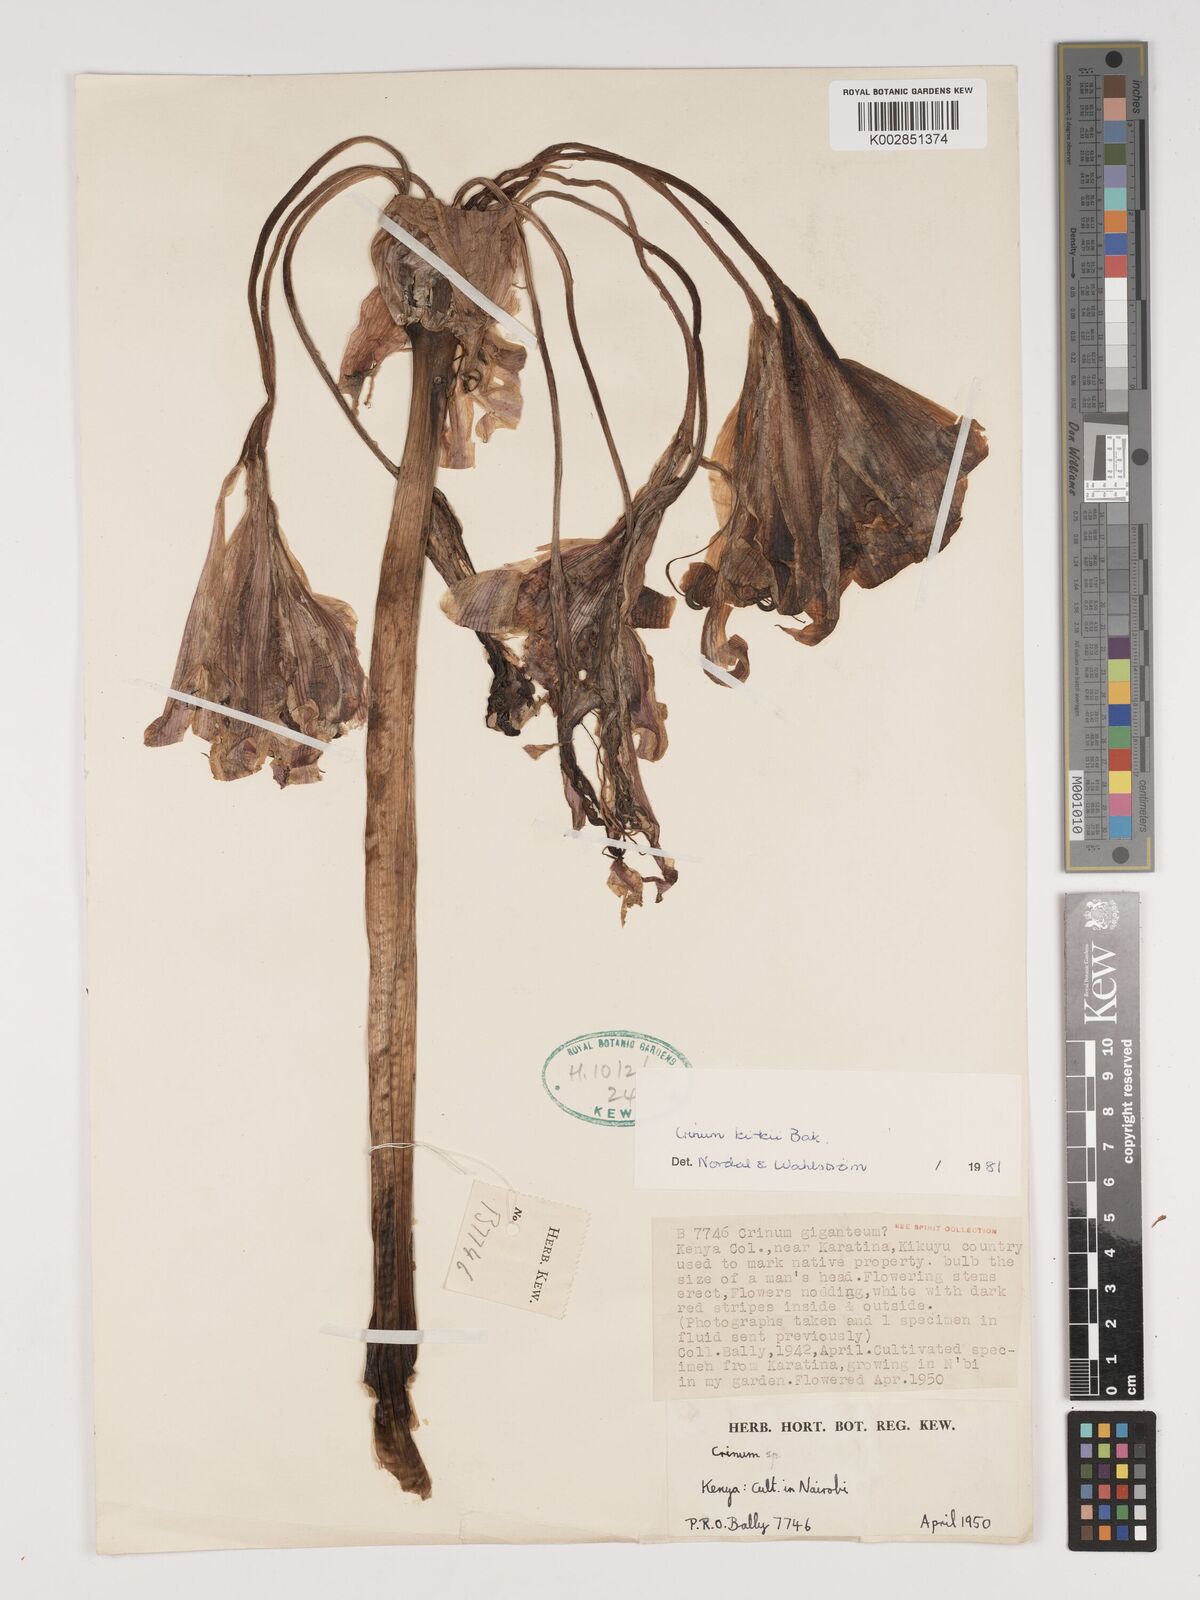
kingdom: Plantae
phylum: Tracheophyta
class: Liliopsida
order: Asparagales
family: Amaryllidaceae
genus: Crinum
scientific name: Crinum kirkii
